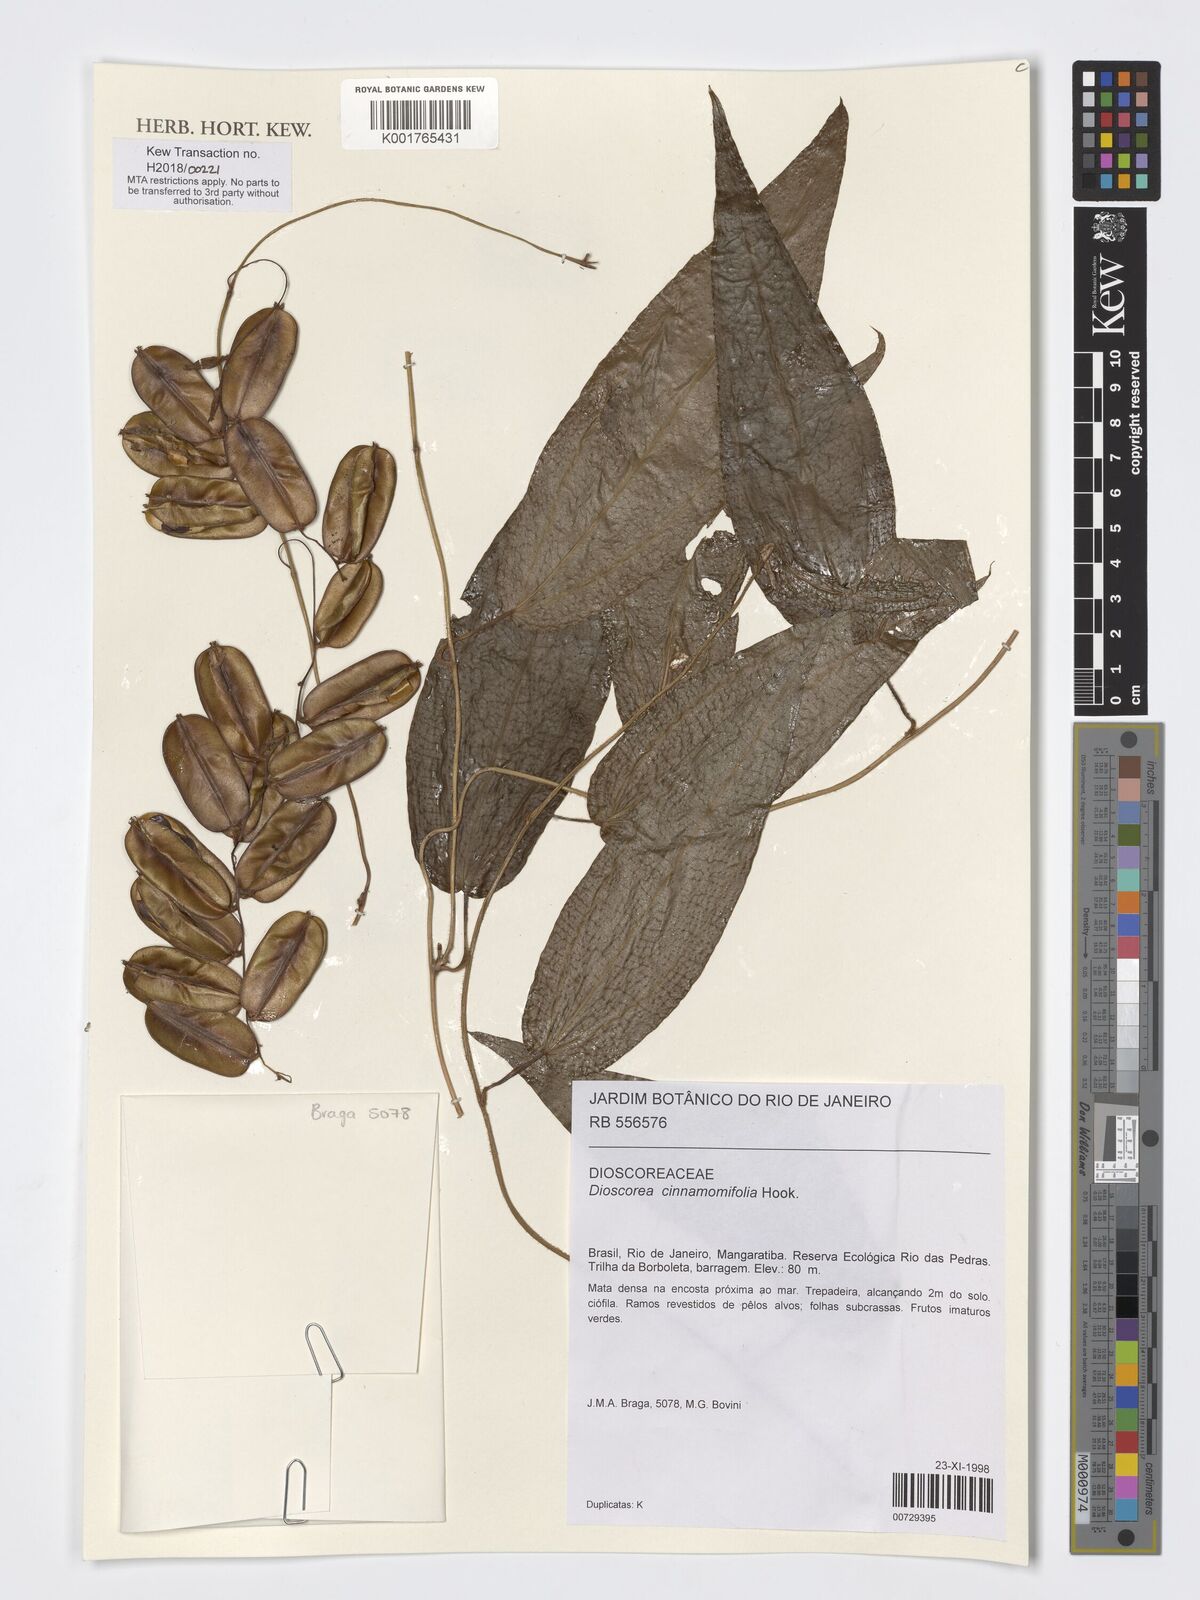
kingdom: Plantae
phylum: Tracheophyta
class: Liliopsida
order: Dioscoreales
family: Dioscoreaceae
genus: Dioscorea
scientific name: Dioscorea cinnamomifolia
